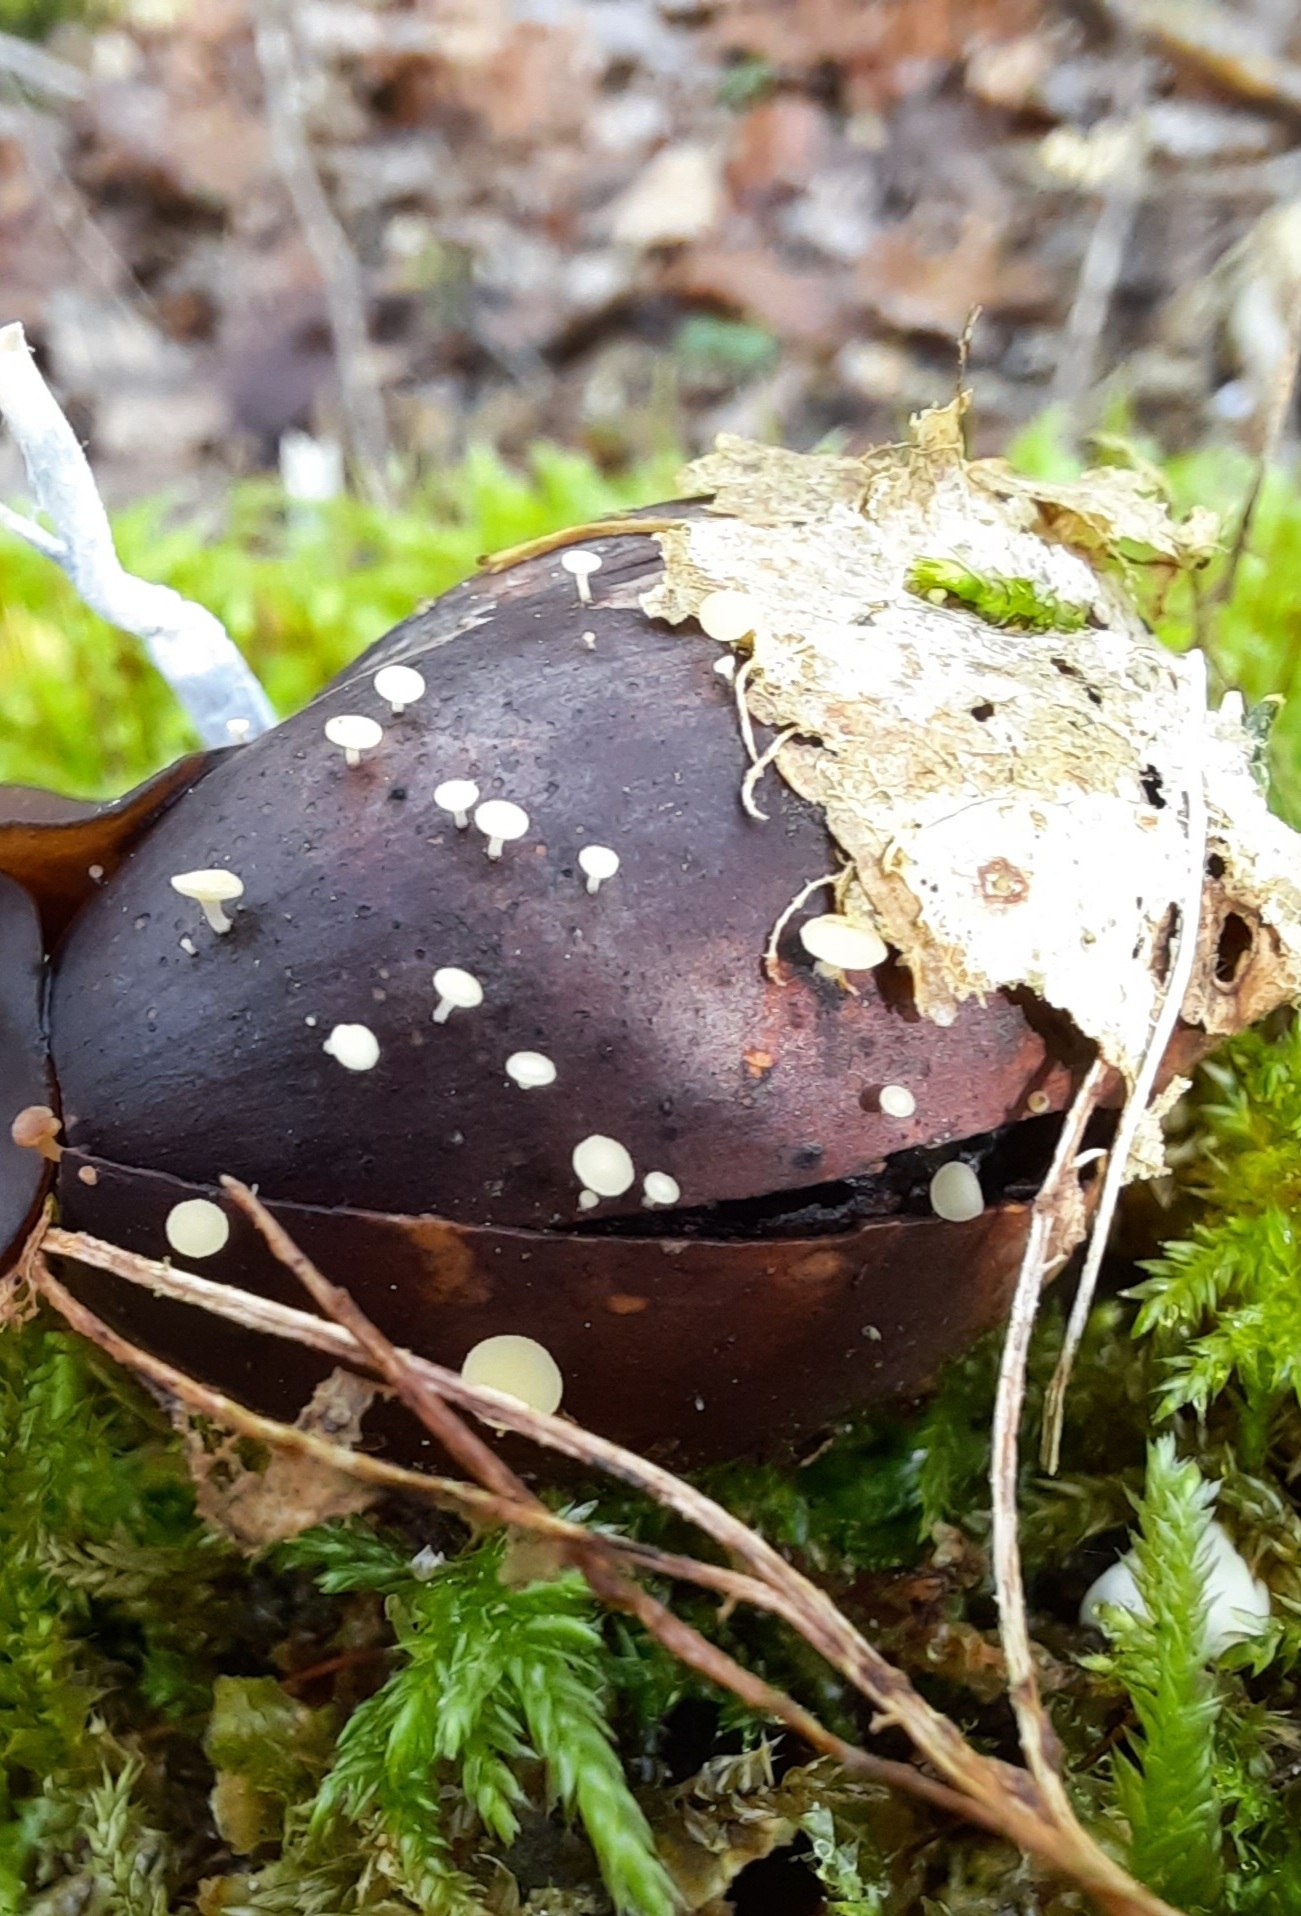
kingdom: Fungi
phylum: Ascomycota
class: Leotiomycetes
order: Helotiales
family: Helotiaceae
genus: Hymenoscyphus
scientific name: Hymenoscyphus fructigenus
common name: frugt-stilkskive
